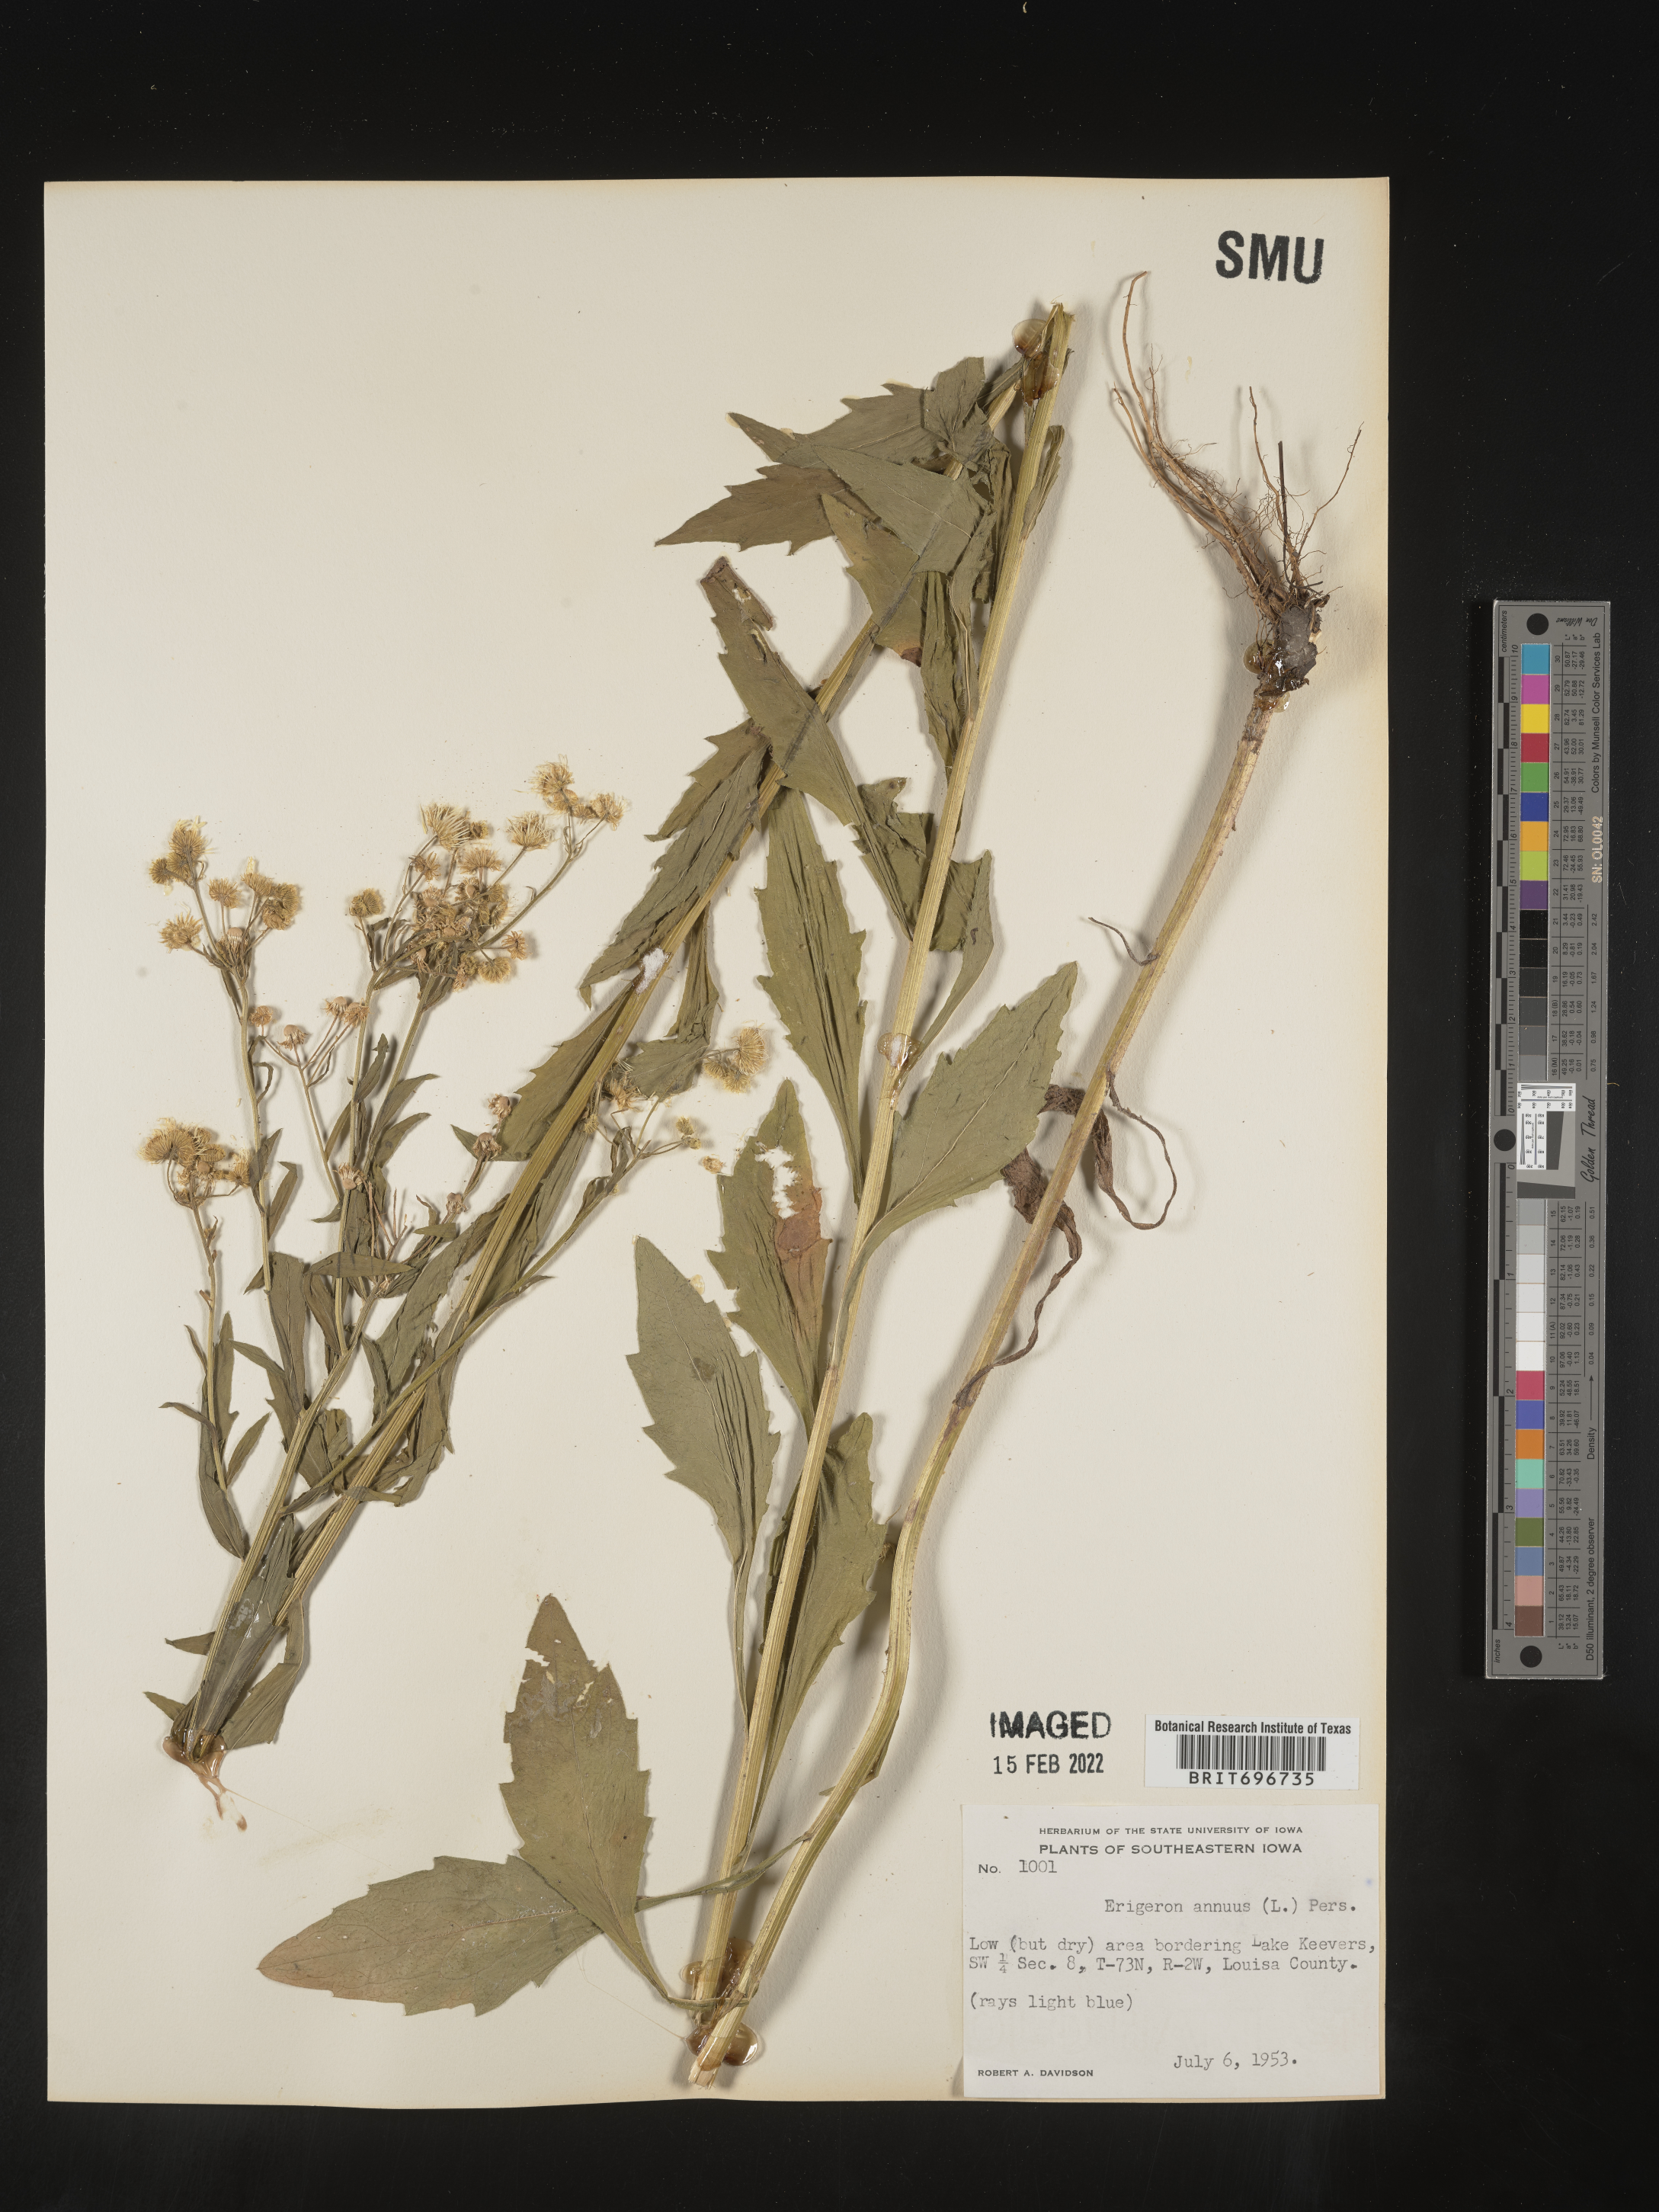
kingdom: Plantae
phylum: Tracheophyta
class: Magnoliopsida
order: Asterales
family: Asteraceae
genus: Erigeron
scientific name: Erigeron annuus
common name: Tall fleabane
